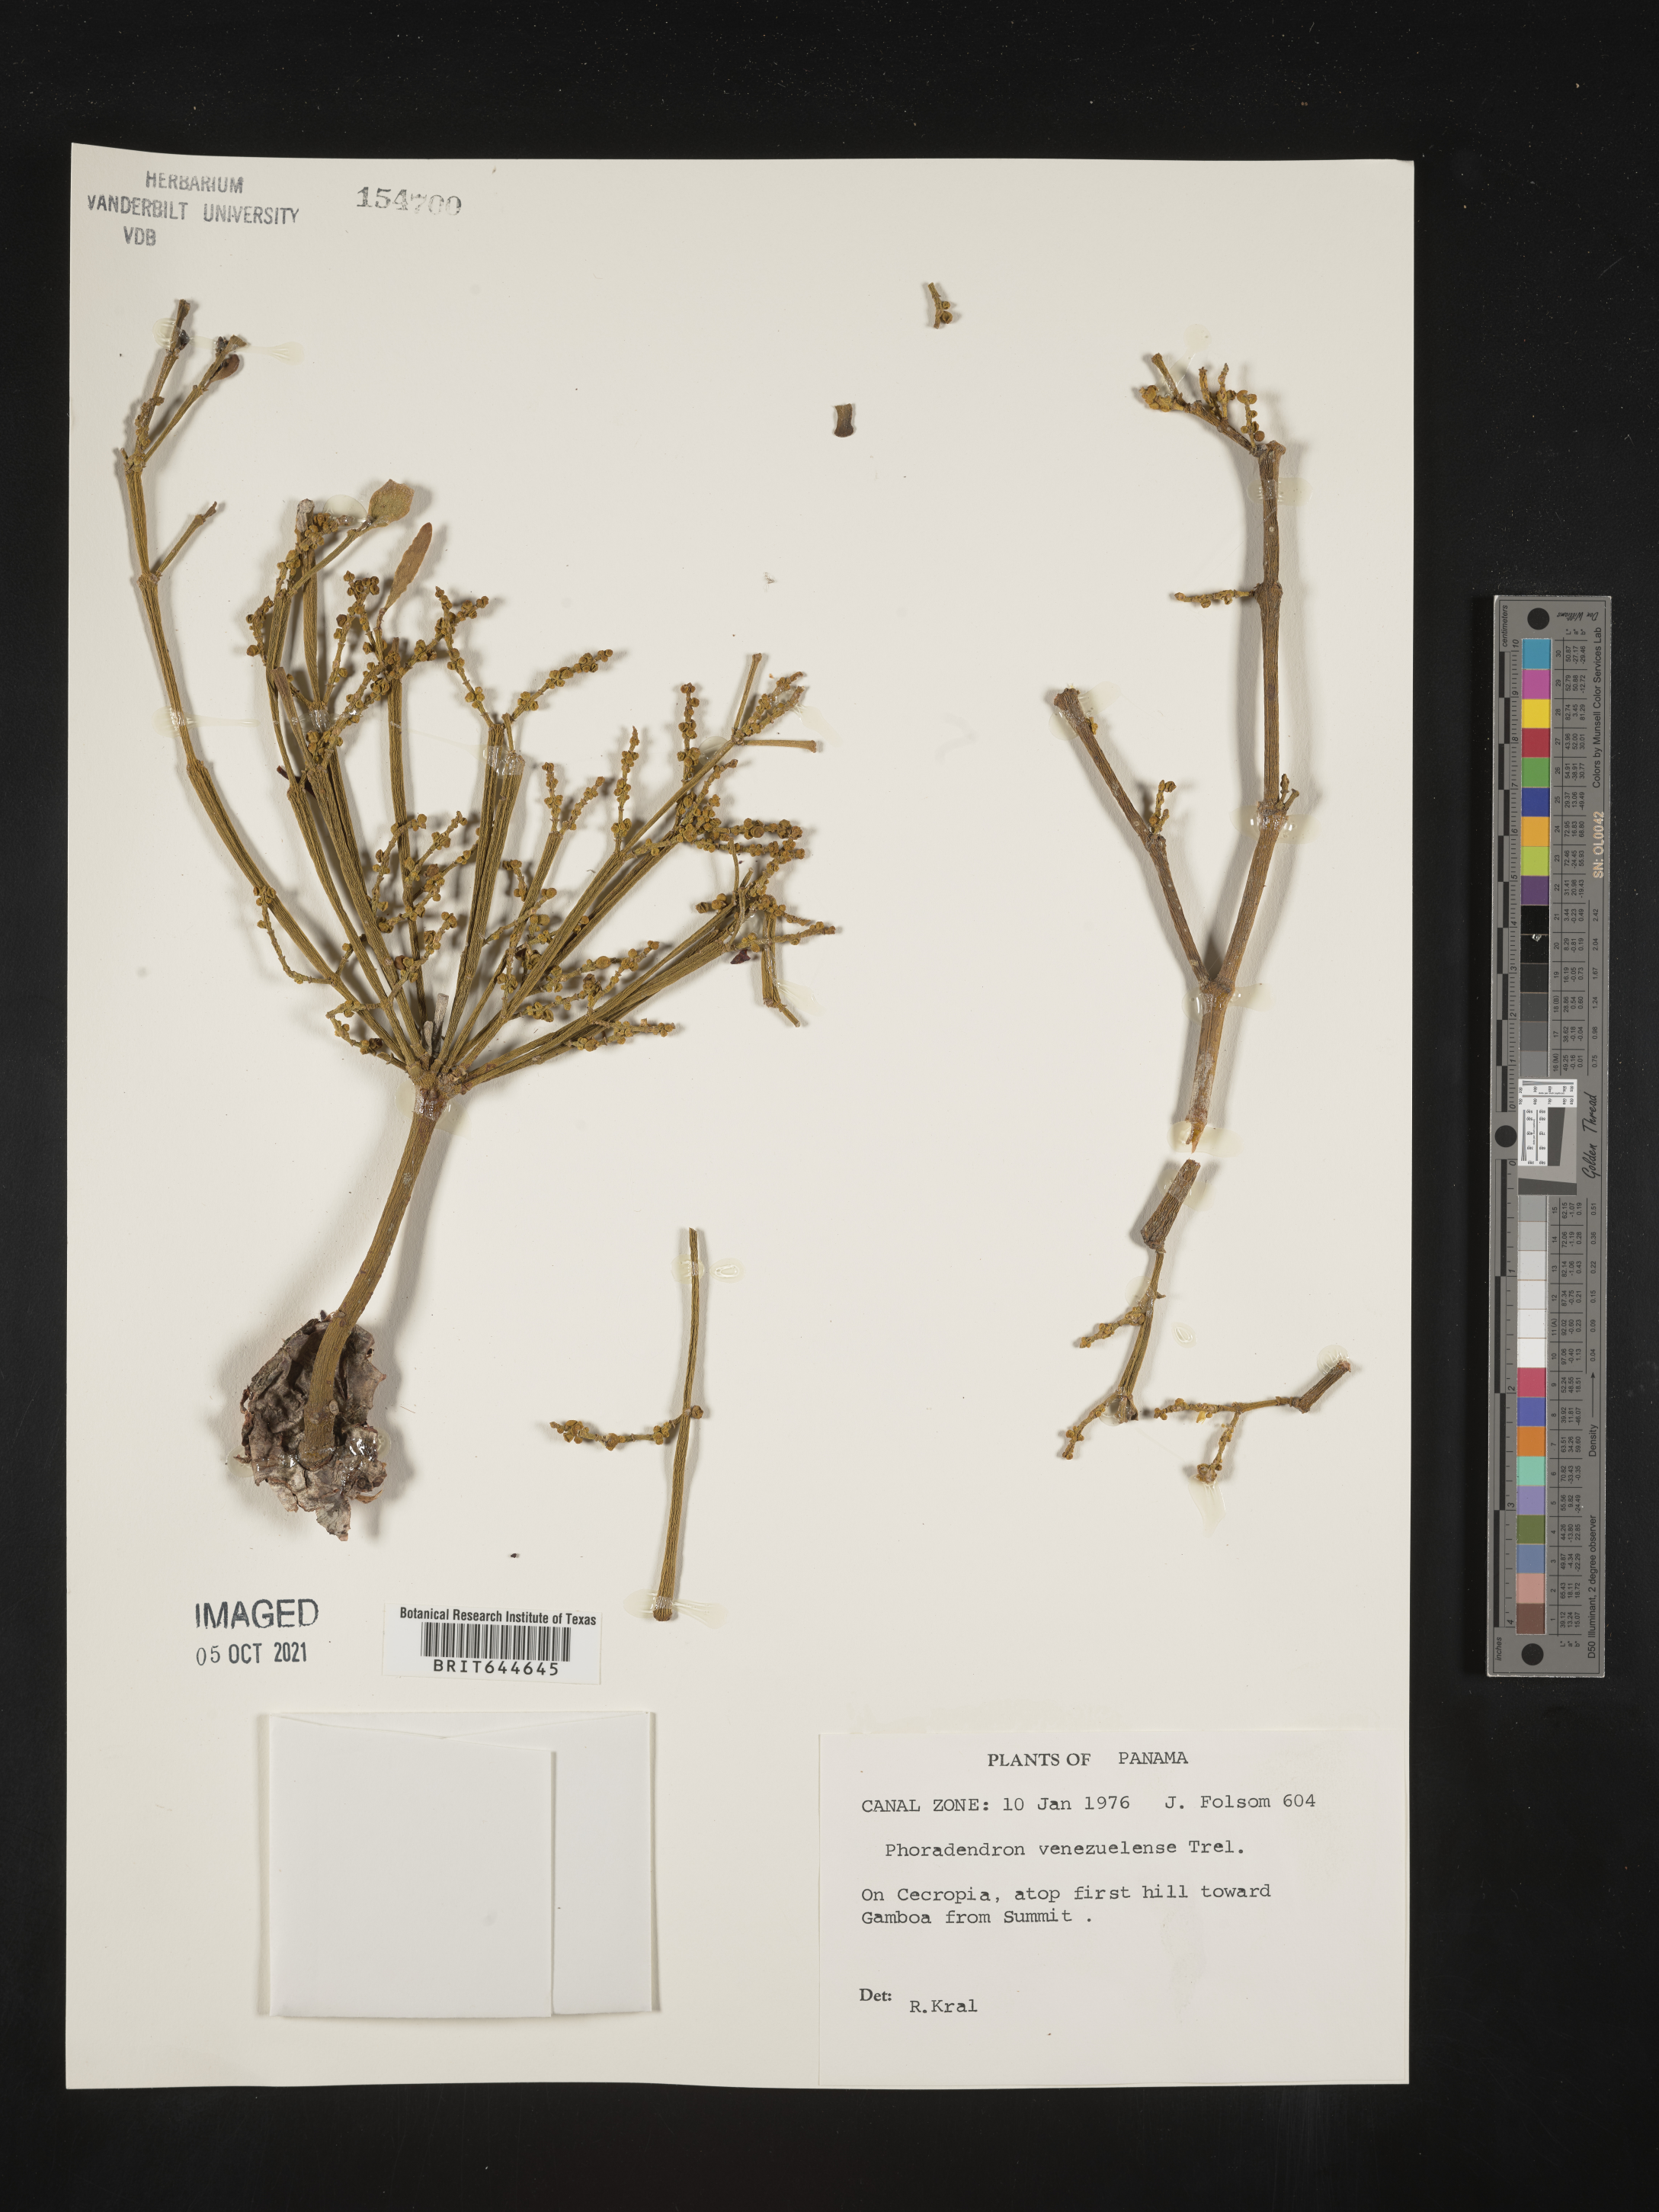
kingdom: Plantae
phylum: Tracheophyta
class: Magnoliopsida
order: Santalales
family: Viscaceae
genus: Phoradendron
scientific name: Phoradendron
